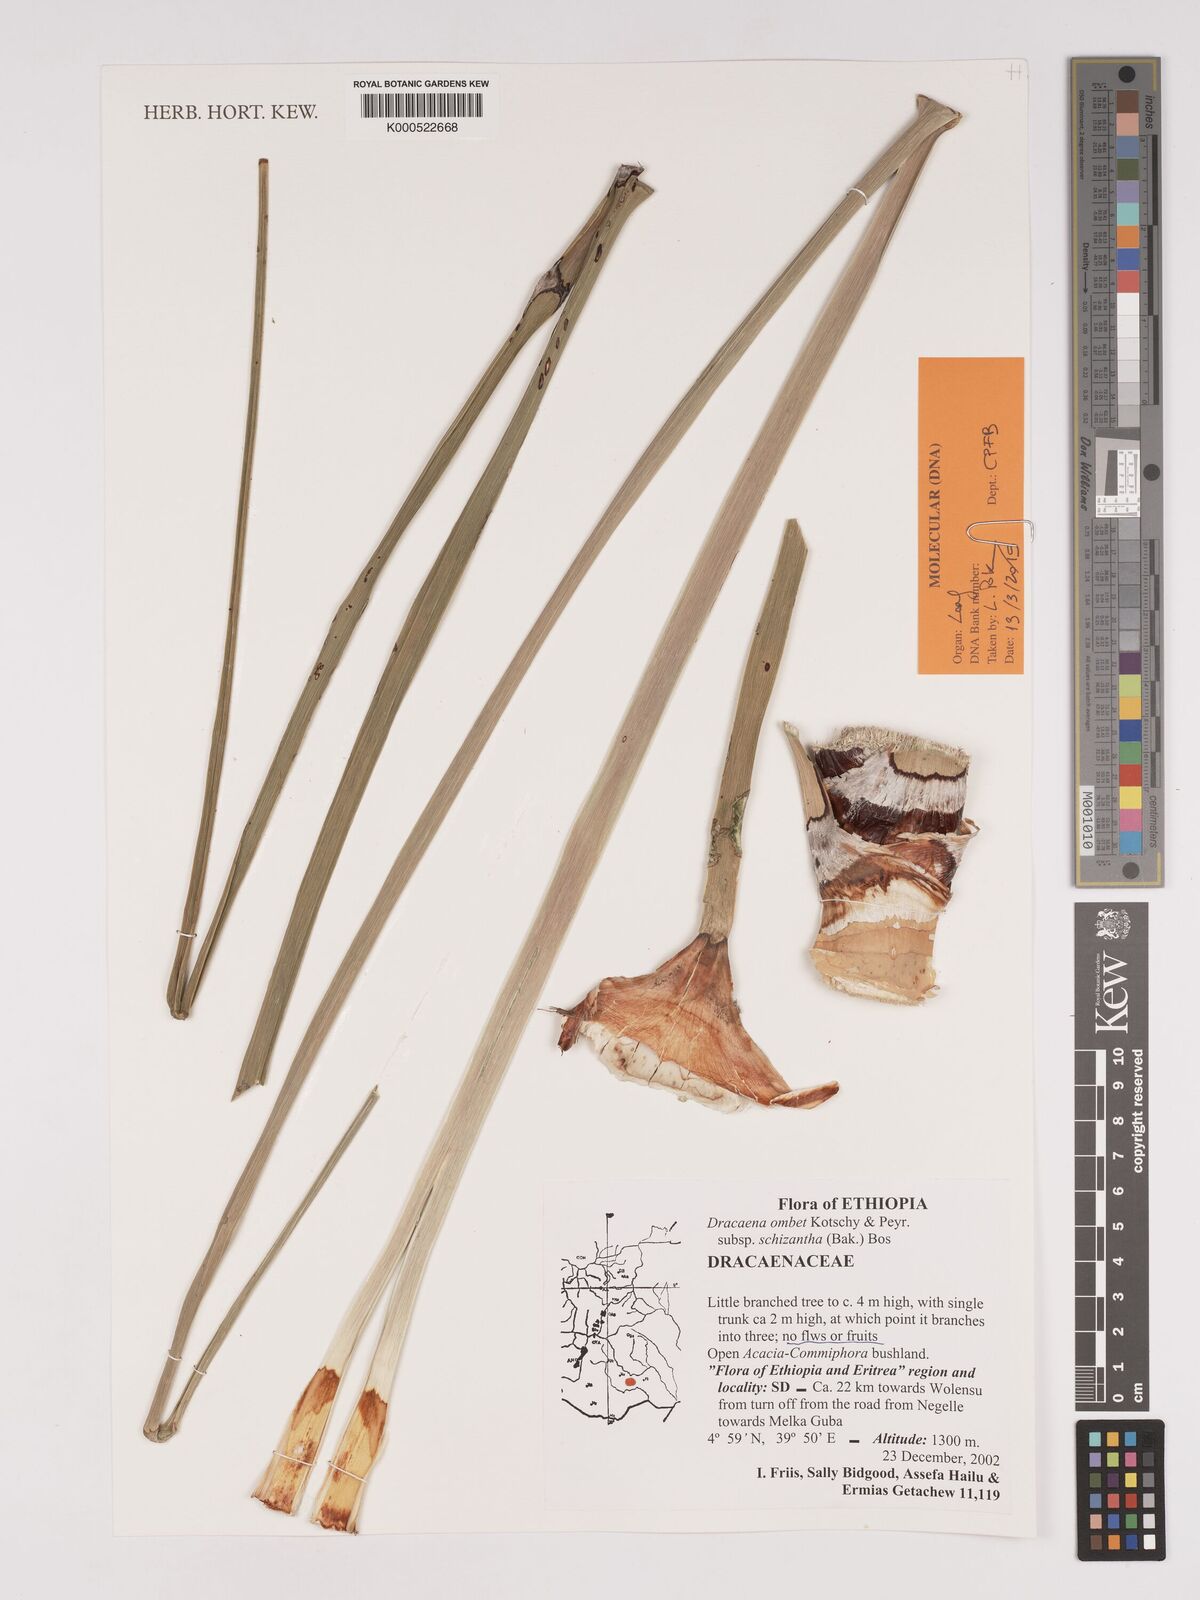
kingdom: Plantae
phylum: Tracheophyta
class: Liliopsida
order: Asparagales
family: Asparagaceae
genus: Dracaena
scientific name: Dracaena ombet
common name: Gabal elba dragon tree
